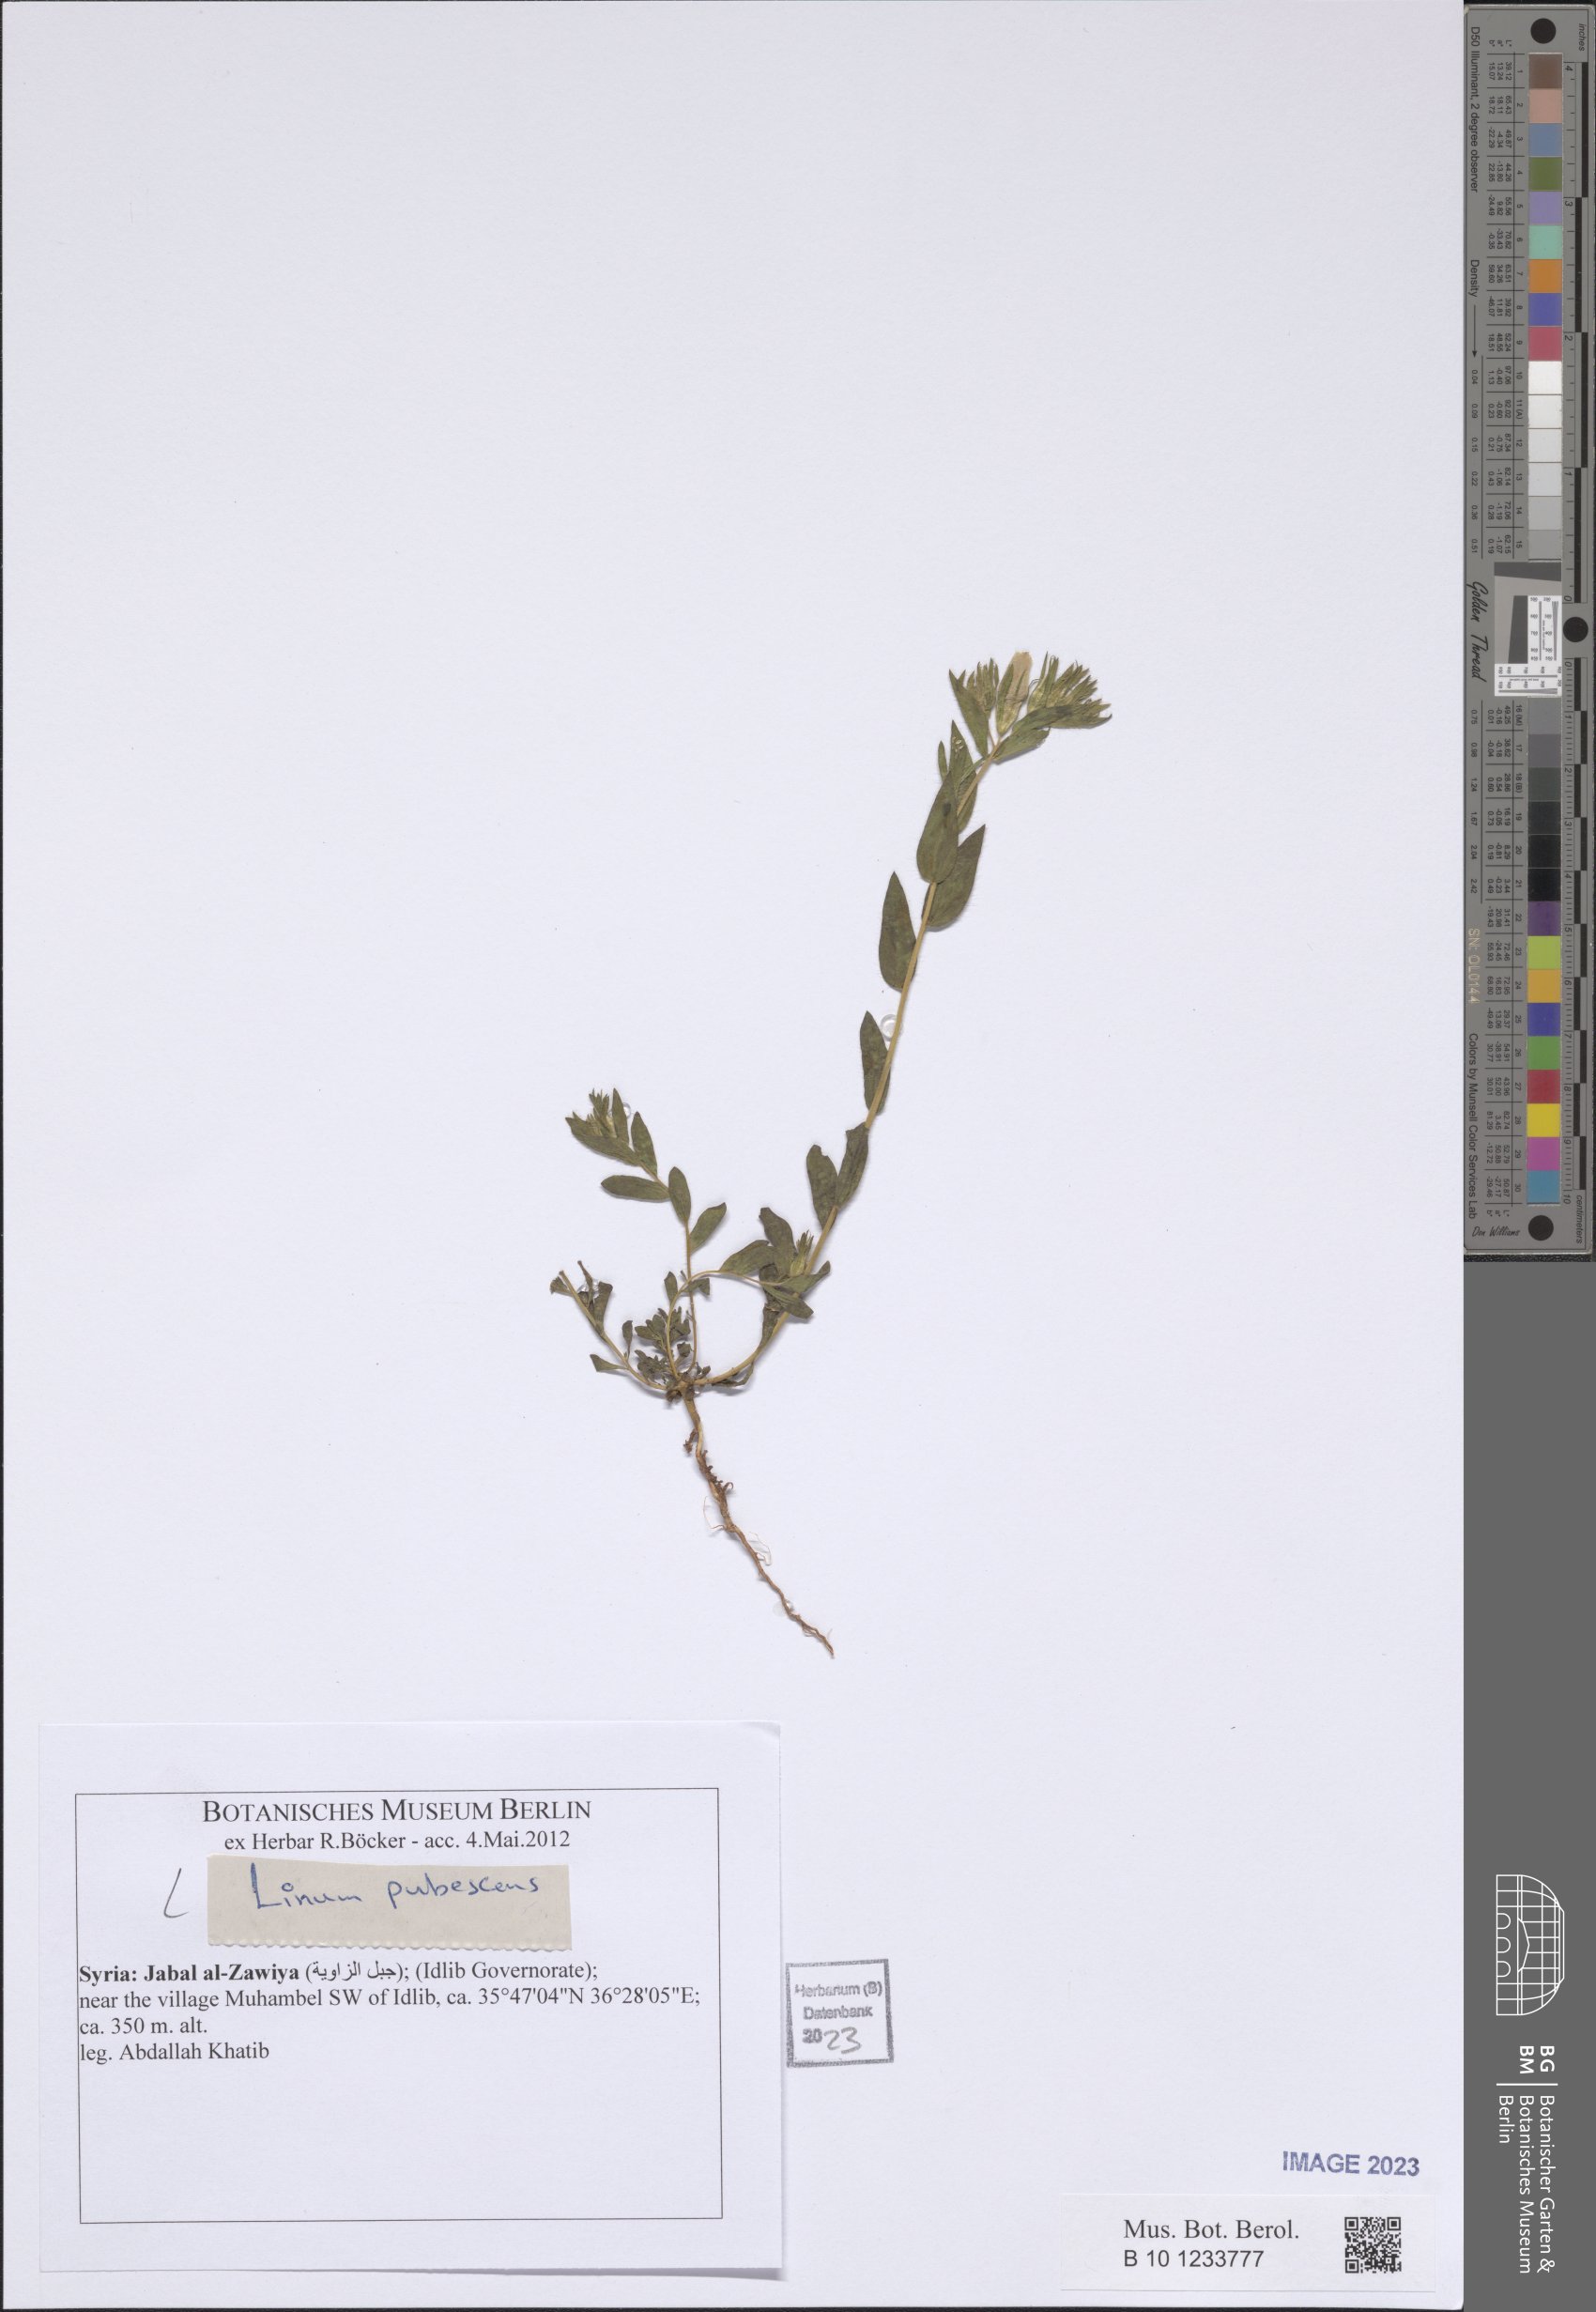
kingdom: Plantae
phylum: Tracheophyta
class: Magnoliopsida
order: Malpighiales
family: Linaceae
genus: Linum
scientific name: Linum pubescens
